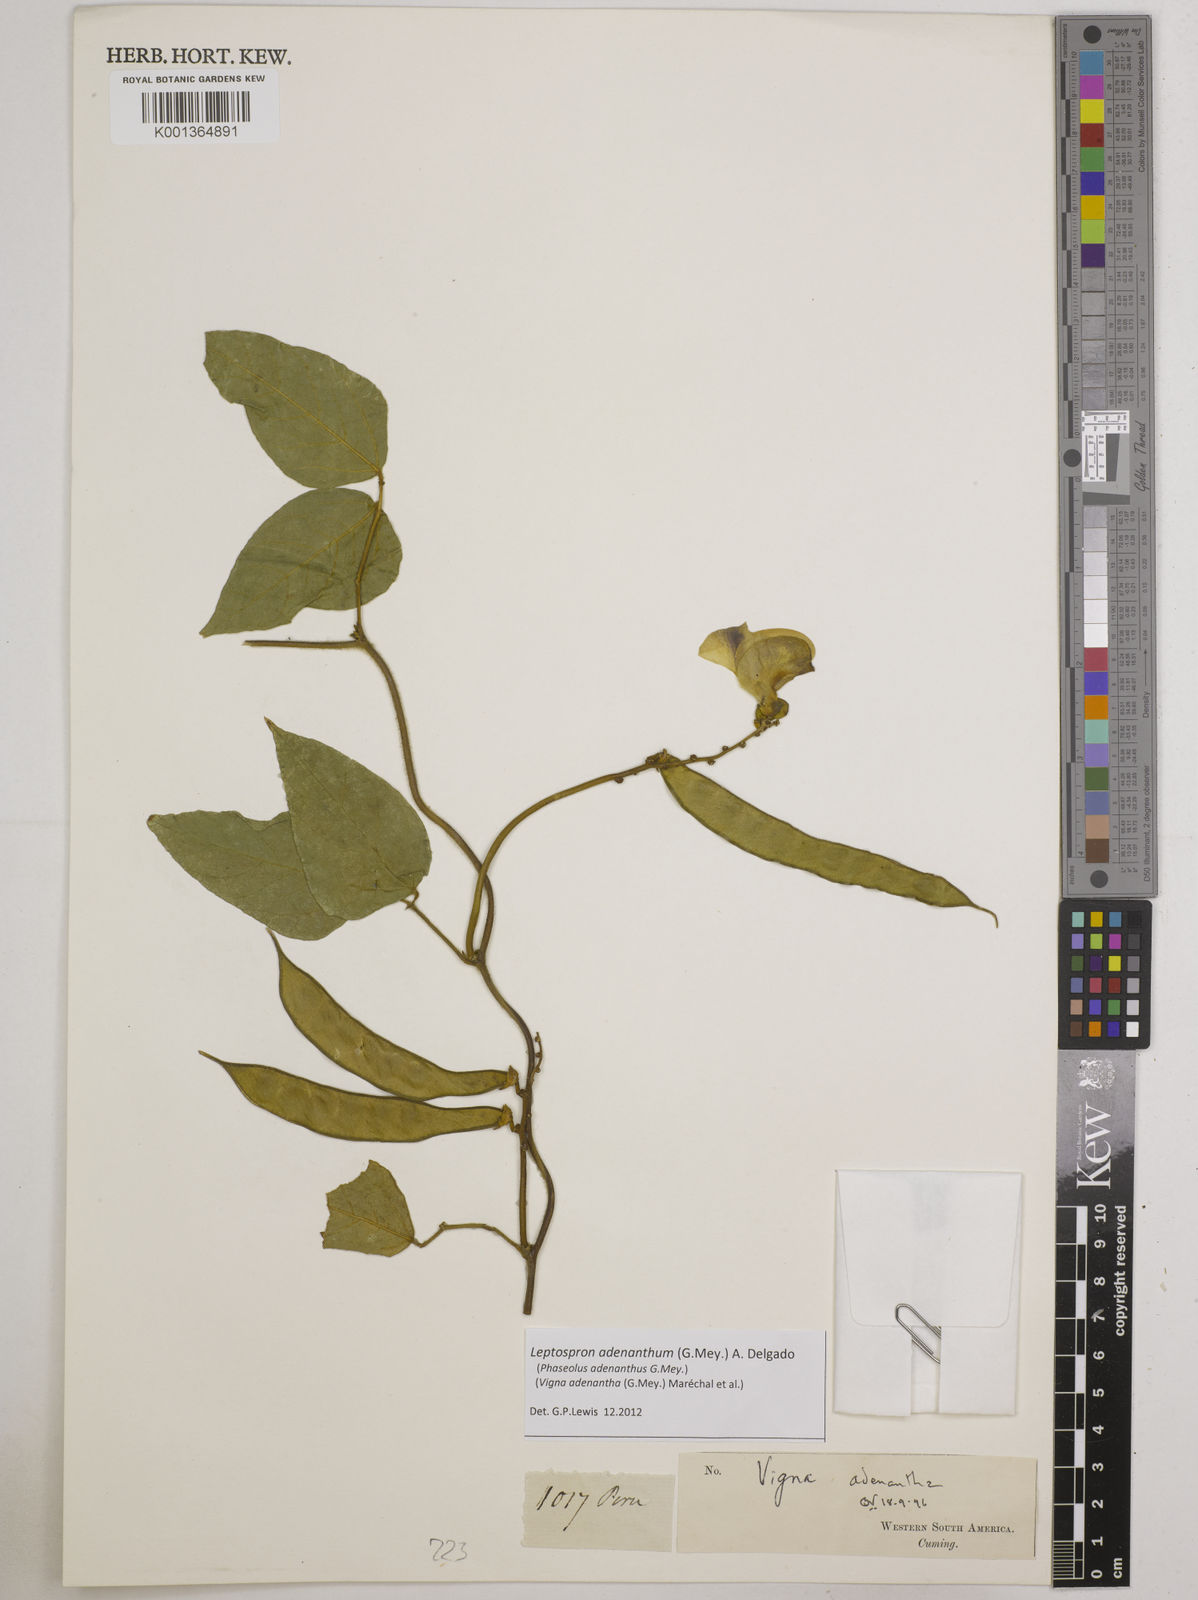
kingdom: Plantae
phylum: Tracheophyta
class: Magnoliopsida
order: Fabales
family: Fabaceae
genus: Leptospron
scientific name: Leptospron adenanthum
